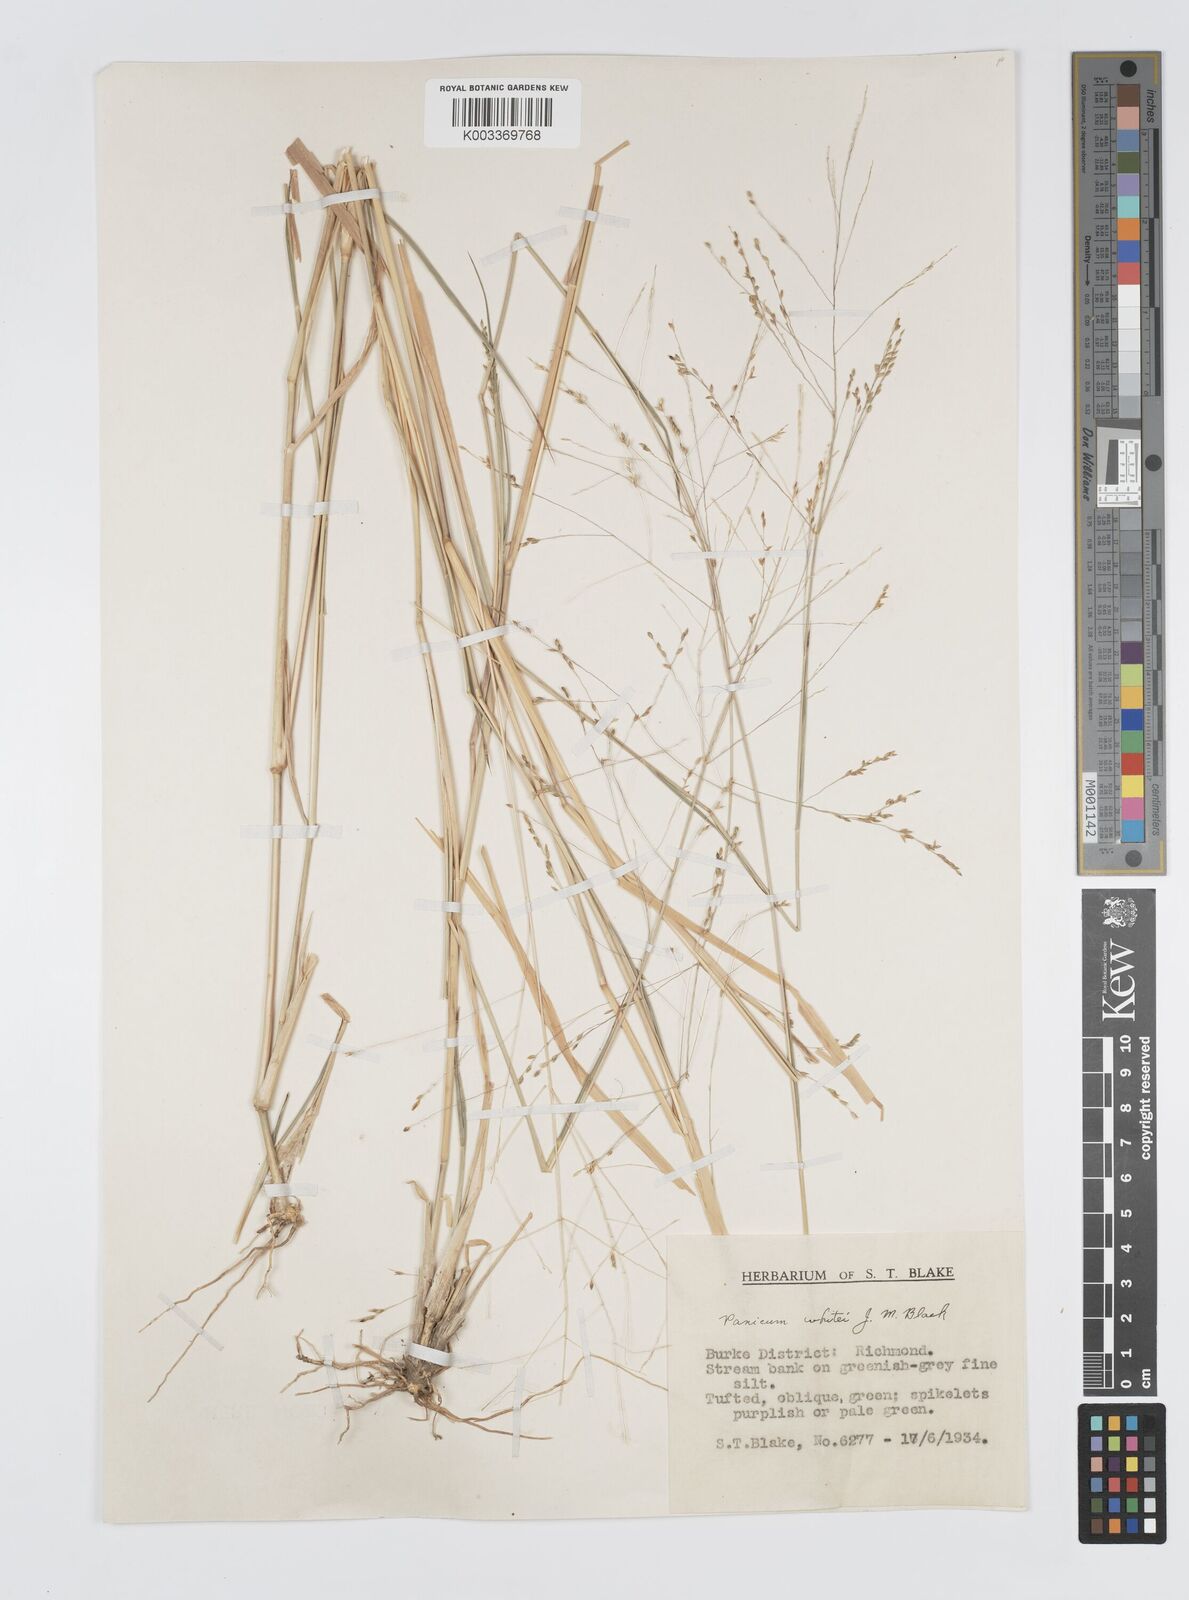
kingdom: Plantae
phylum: Tracheophyta
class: Liliopsida
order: Poales
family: Poaceae
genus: Panicum
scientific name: Panicum laevinode
